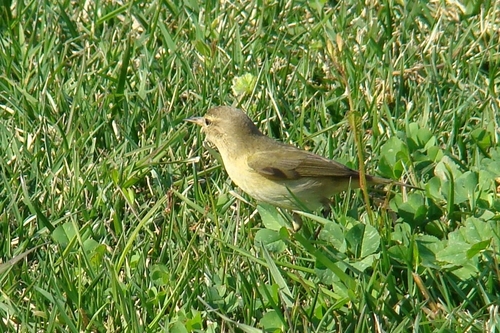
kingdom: Animalia
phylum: Chordata
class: Aves
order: Passeriformes
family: Phylloscopidae
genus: Phylloscopus
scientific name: Phylloscopus collybita
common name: Common chiffchaff
